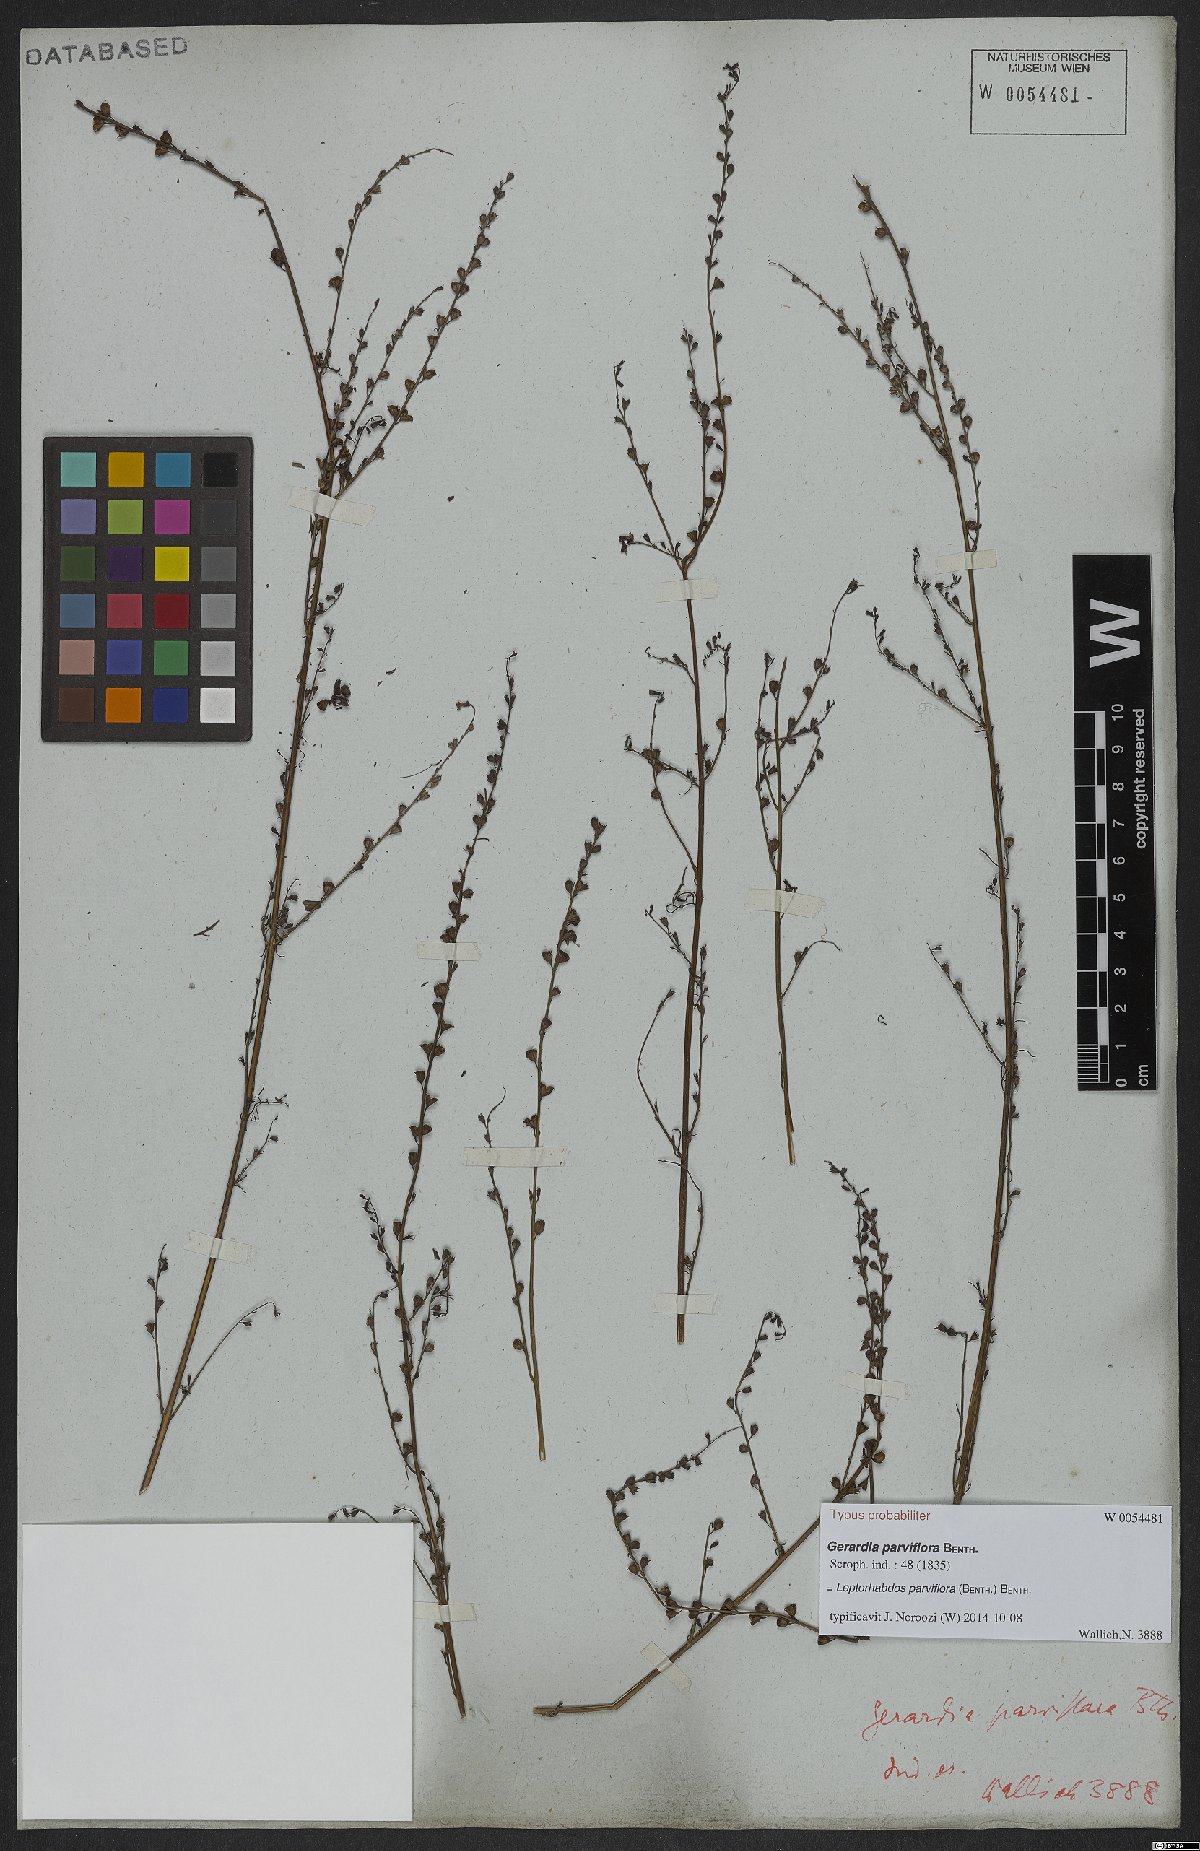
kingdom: Plantae
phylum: Tracheophyta
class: Magnoliopsida
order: Lamiales
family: Orobanchaceae
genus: Leptorhabdos
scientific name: Leptorhabdos parviflora
